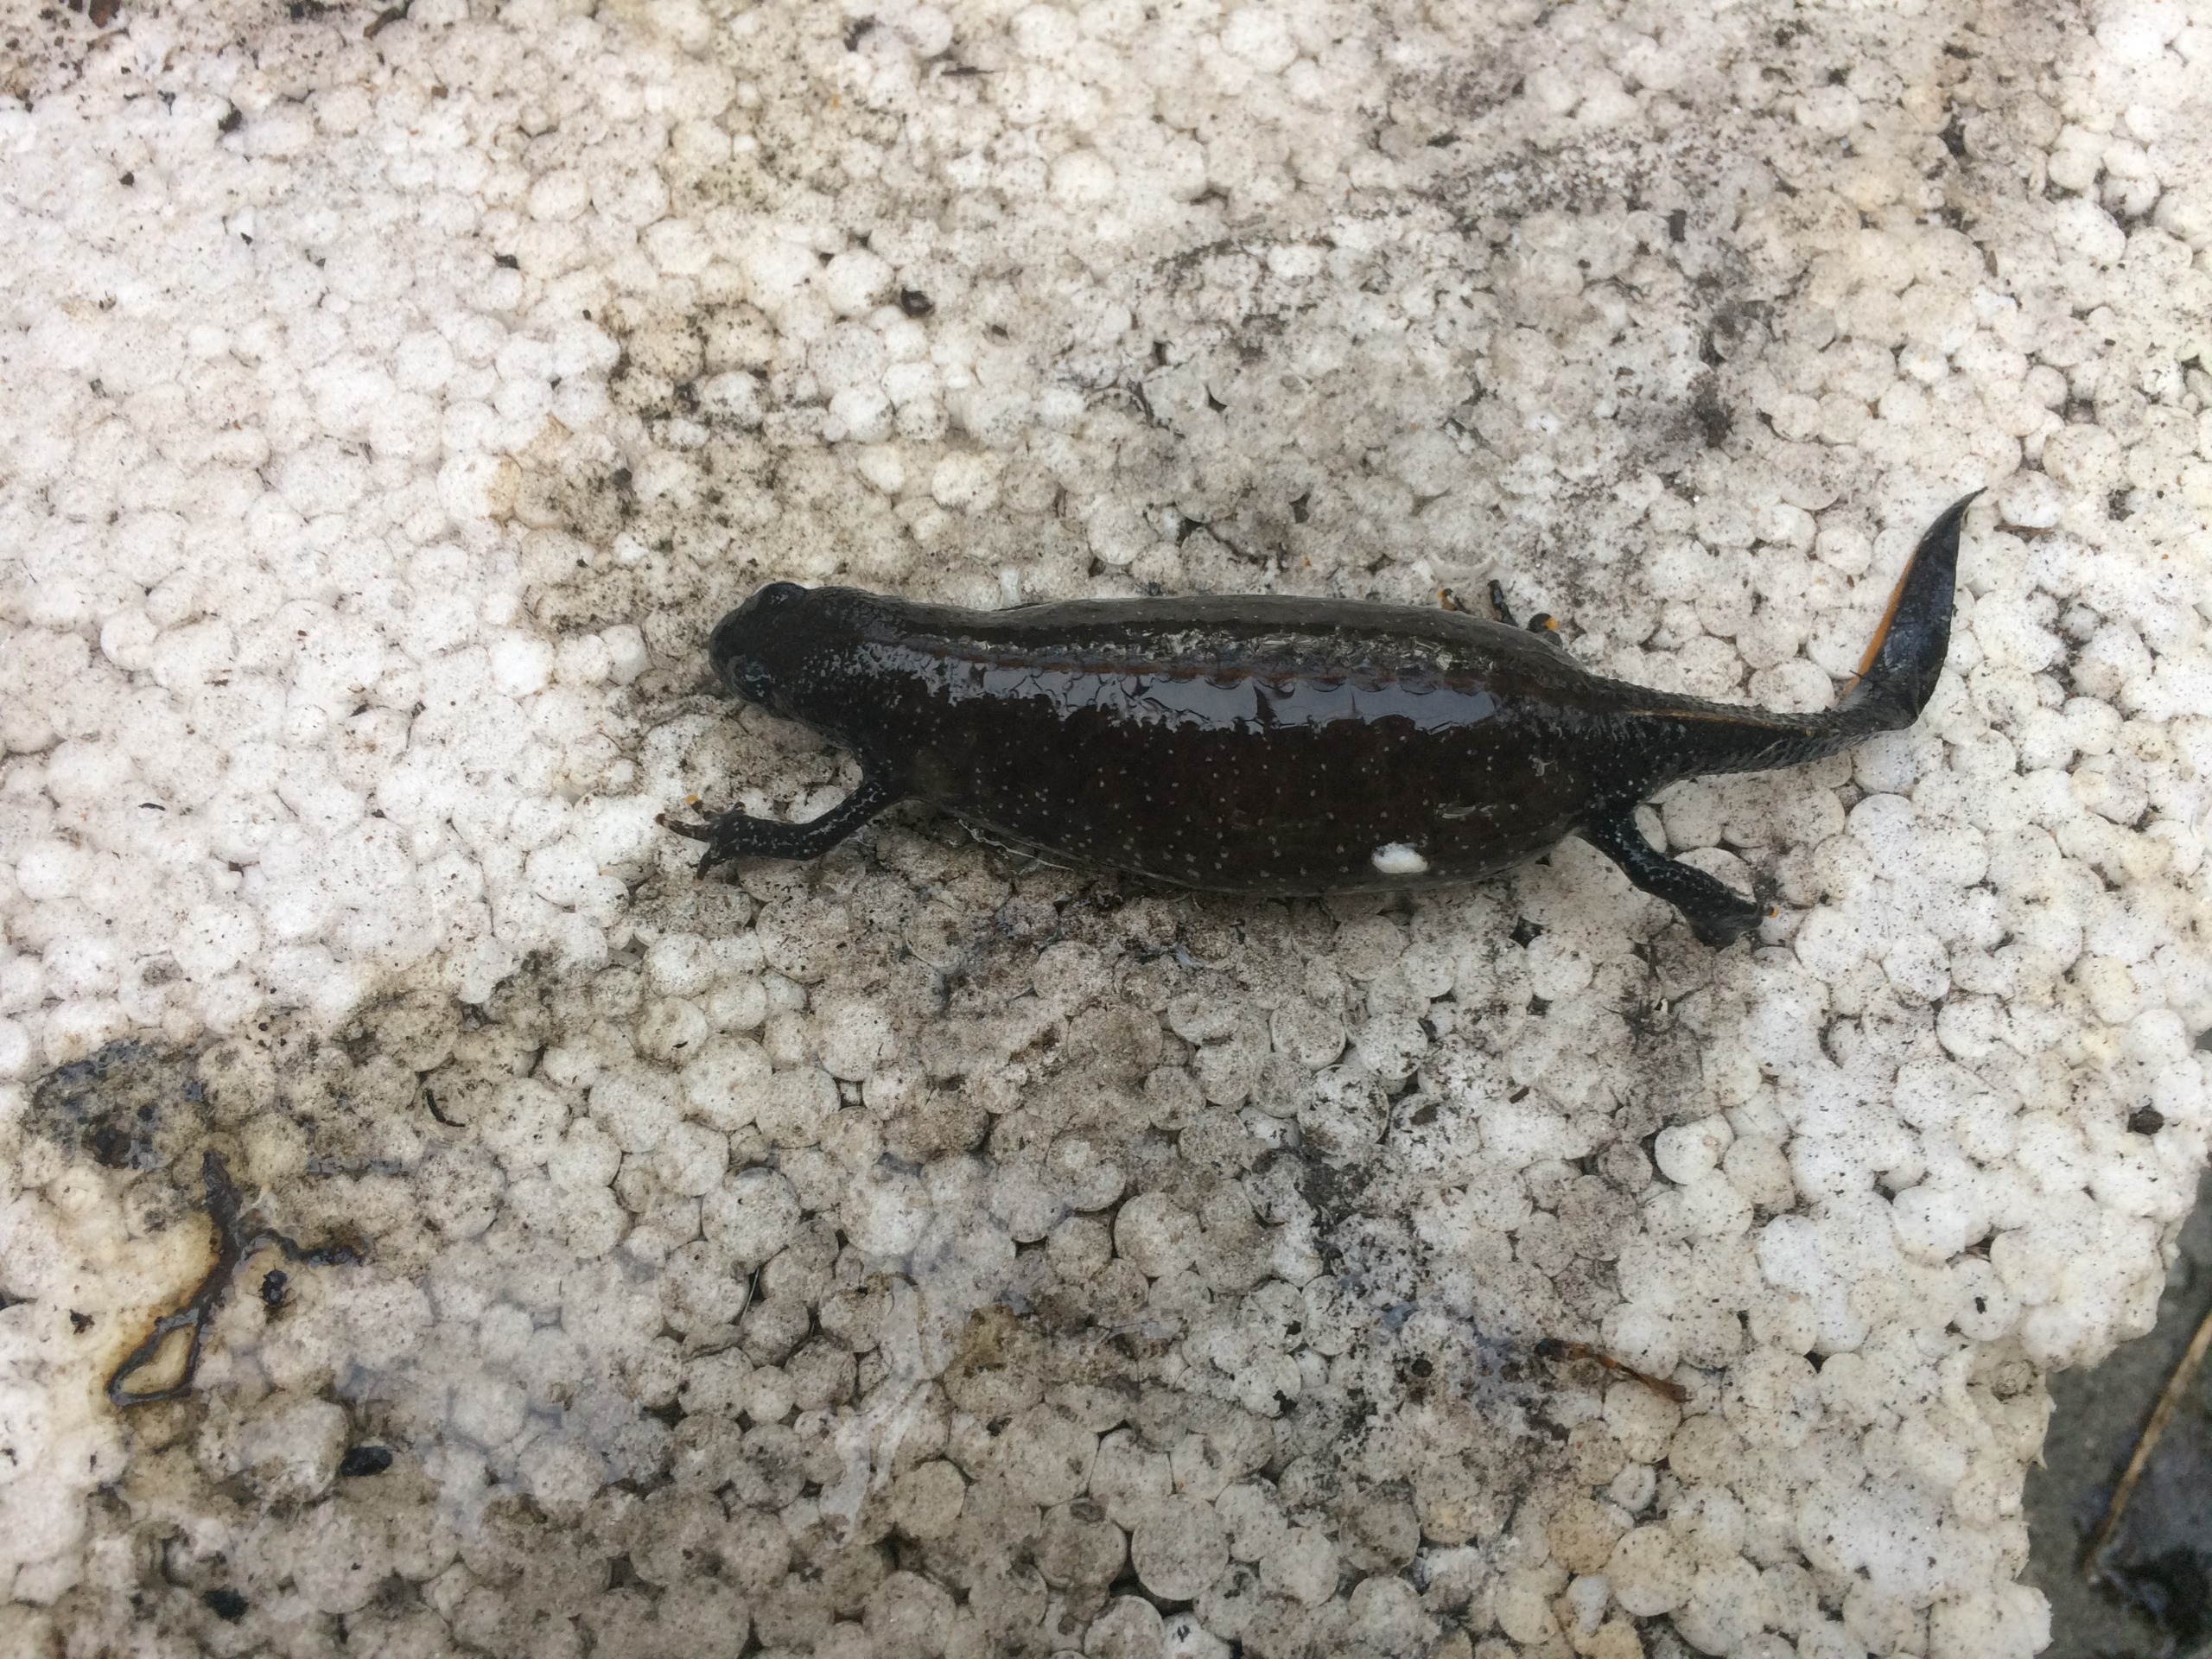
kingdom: Animalia
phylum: Chordata
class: Amphibia
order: Caudata
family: Salamandridae
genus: Triturus
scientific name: Triturus cristatus
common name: Stor vandsalamander
